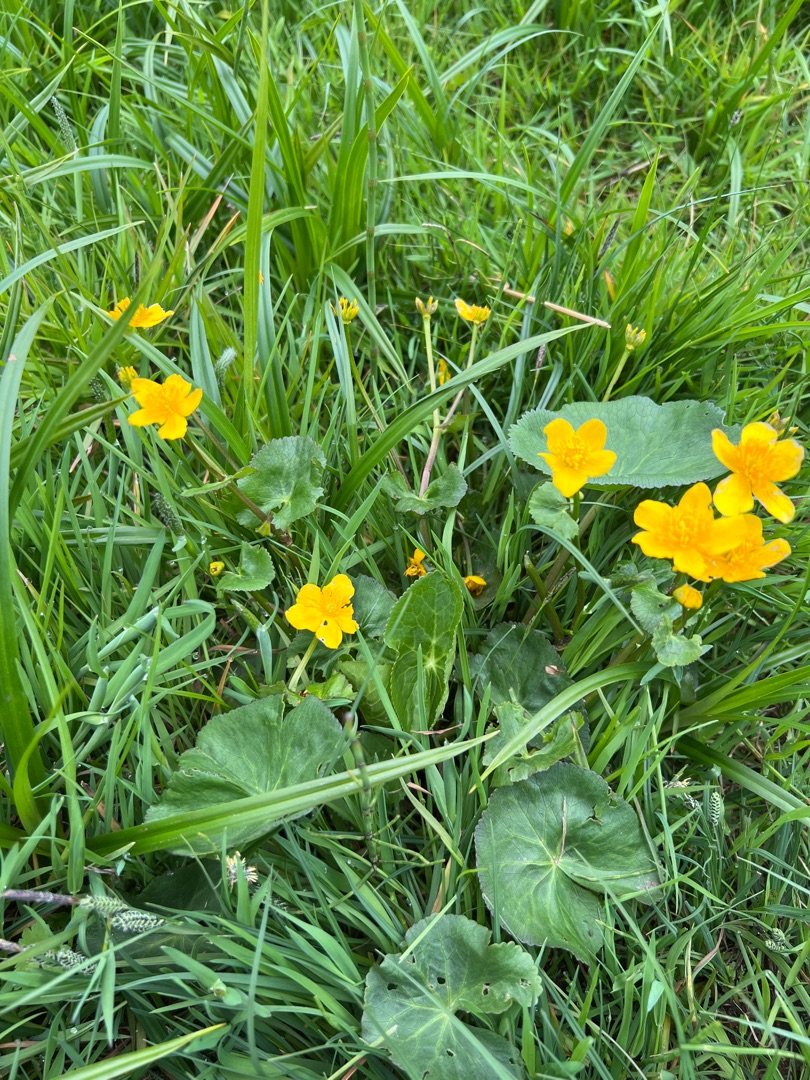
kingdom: Plantae
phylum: Tracheophyta
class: Magnoliopsida
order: Ranunculales
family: Ranunculaceae
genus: Caltha
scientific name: Caltha palustris
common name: Eng-kabbeleje
